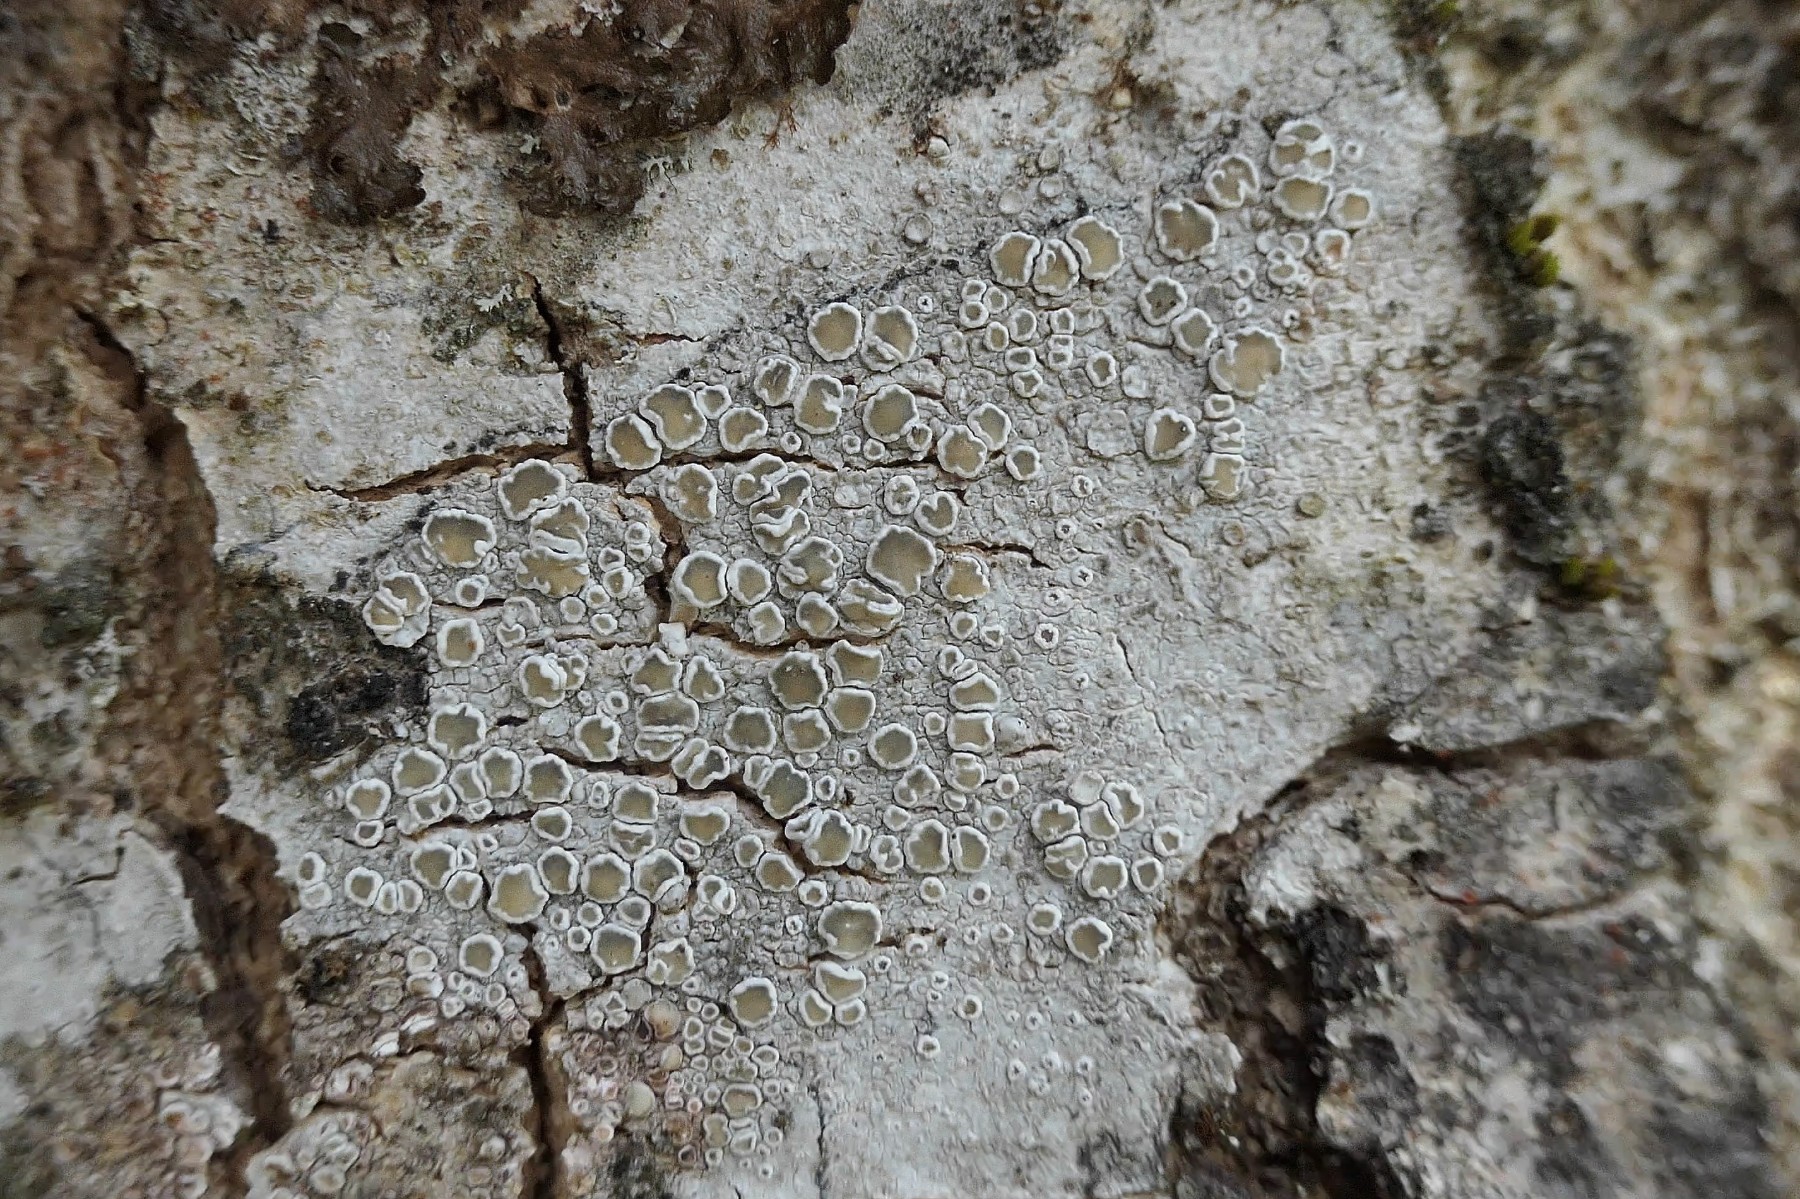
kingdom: Fungi
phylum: Ascomycota
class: Lecanoromycetes
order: Lecanorales
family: Lecanoraceae
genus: Lecanora
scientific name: Lecanora chlarotera
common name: brun kantskivelav
